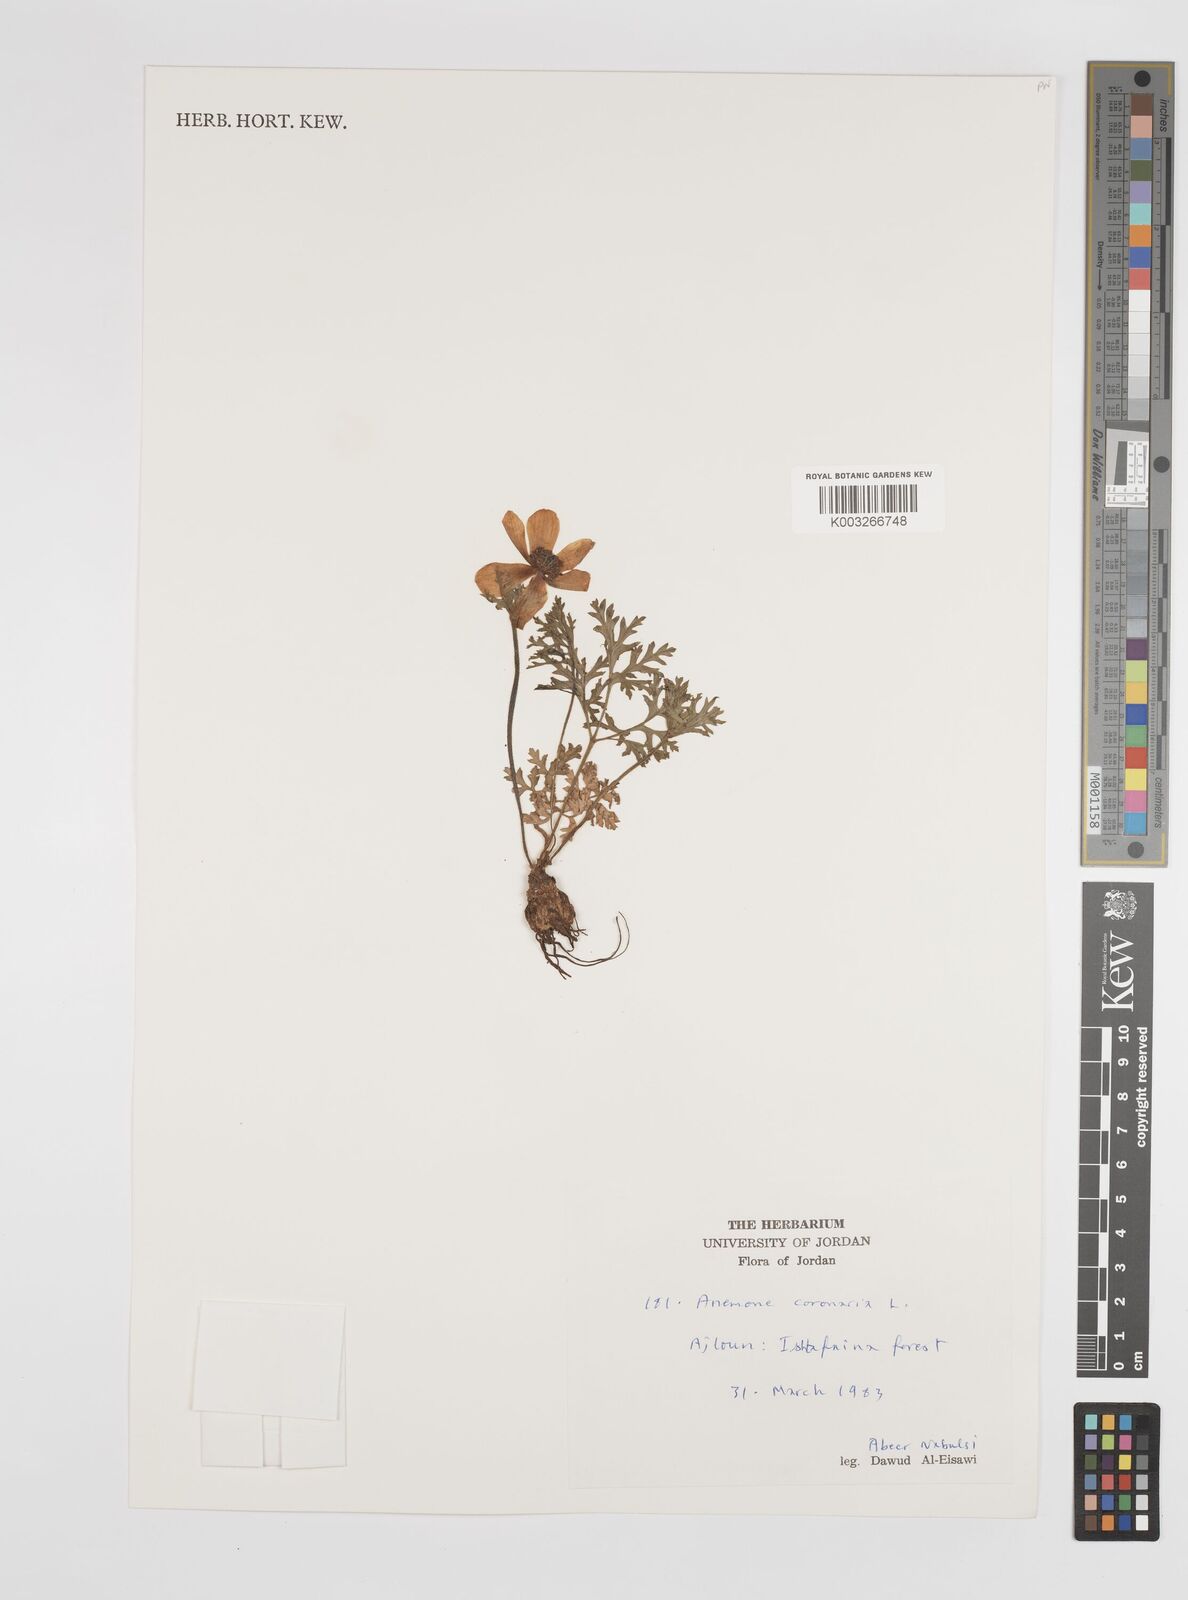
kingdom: Plantae
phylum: Tracheophyta
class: Magnoliopsida
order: Ranunculales
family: Ranunculaceae
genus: Anemone
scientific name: Anemone coronaria
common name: Poppy anemone
